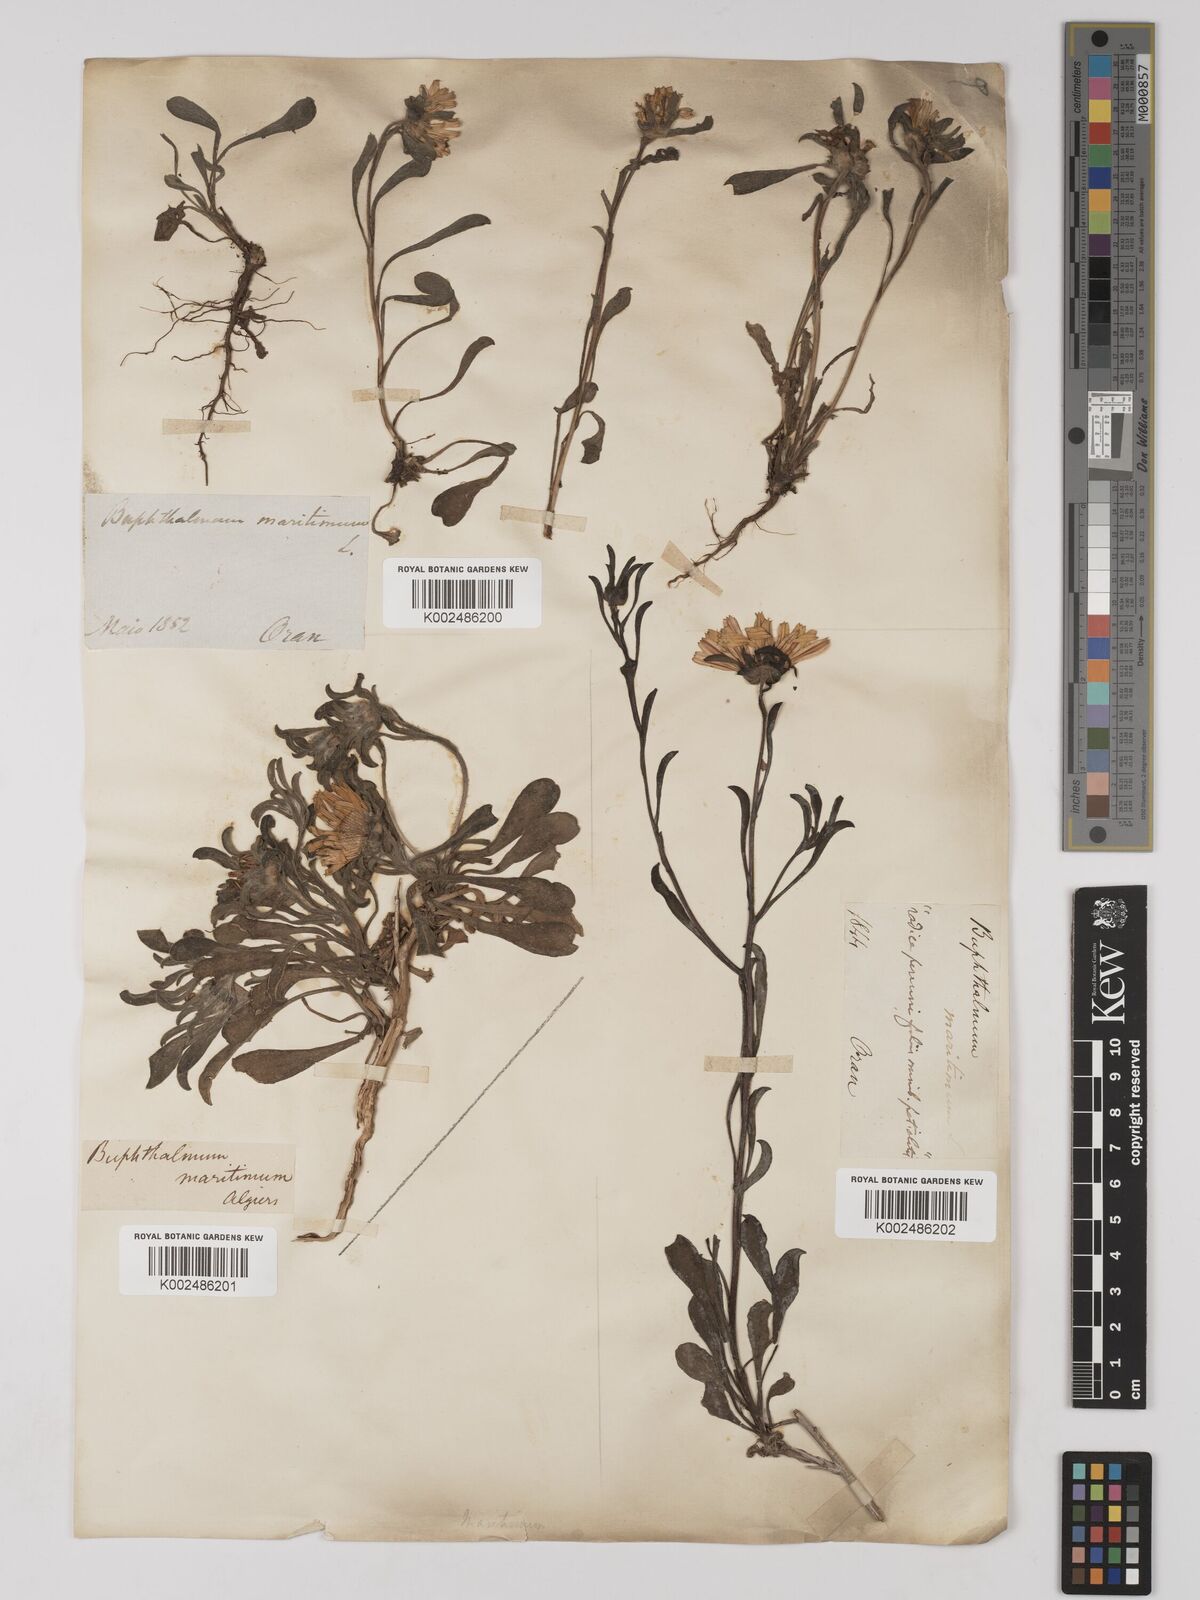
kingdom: Plantae
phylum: Tracheophyta
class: Magnoliopsida
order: Asterales
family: Asteraceae
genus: Pallenis
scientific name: Pallenis maritima
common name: Golden coin daisy
